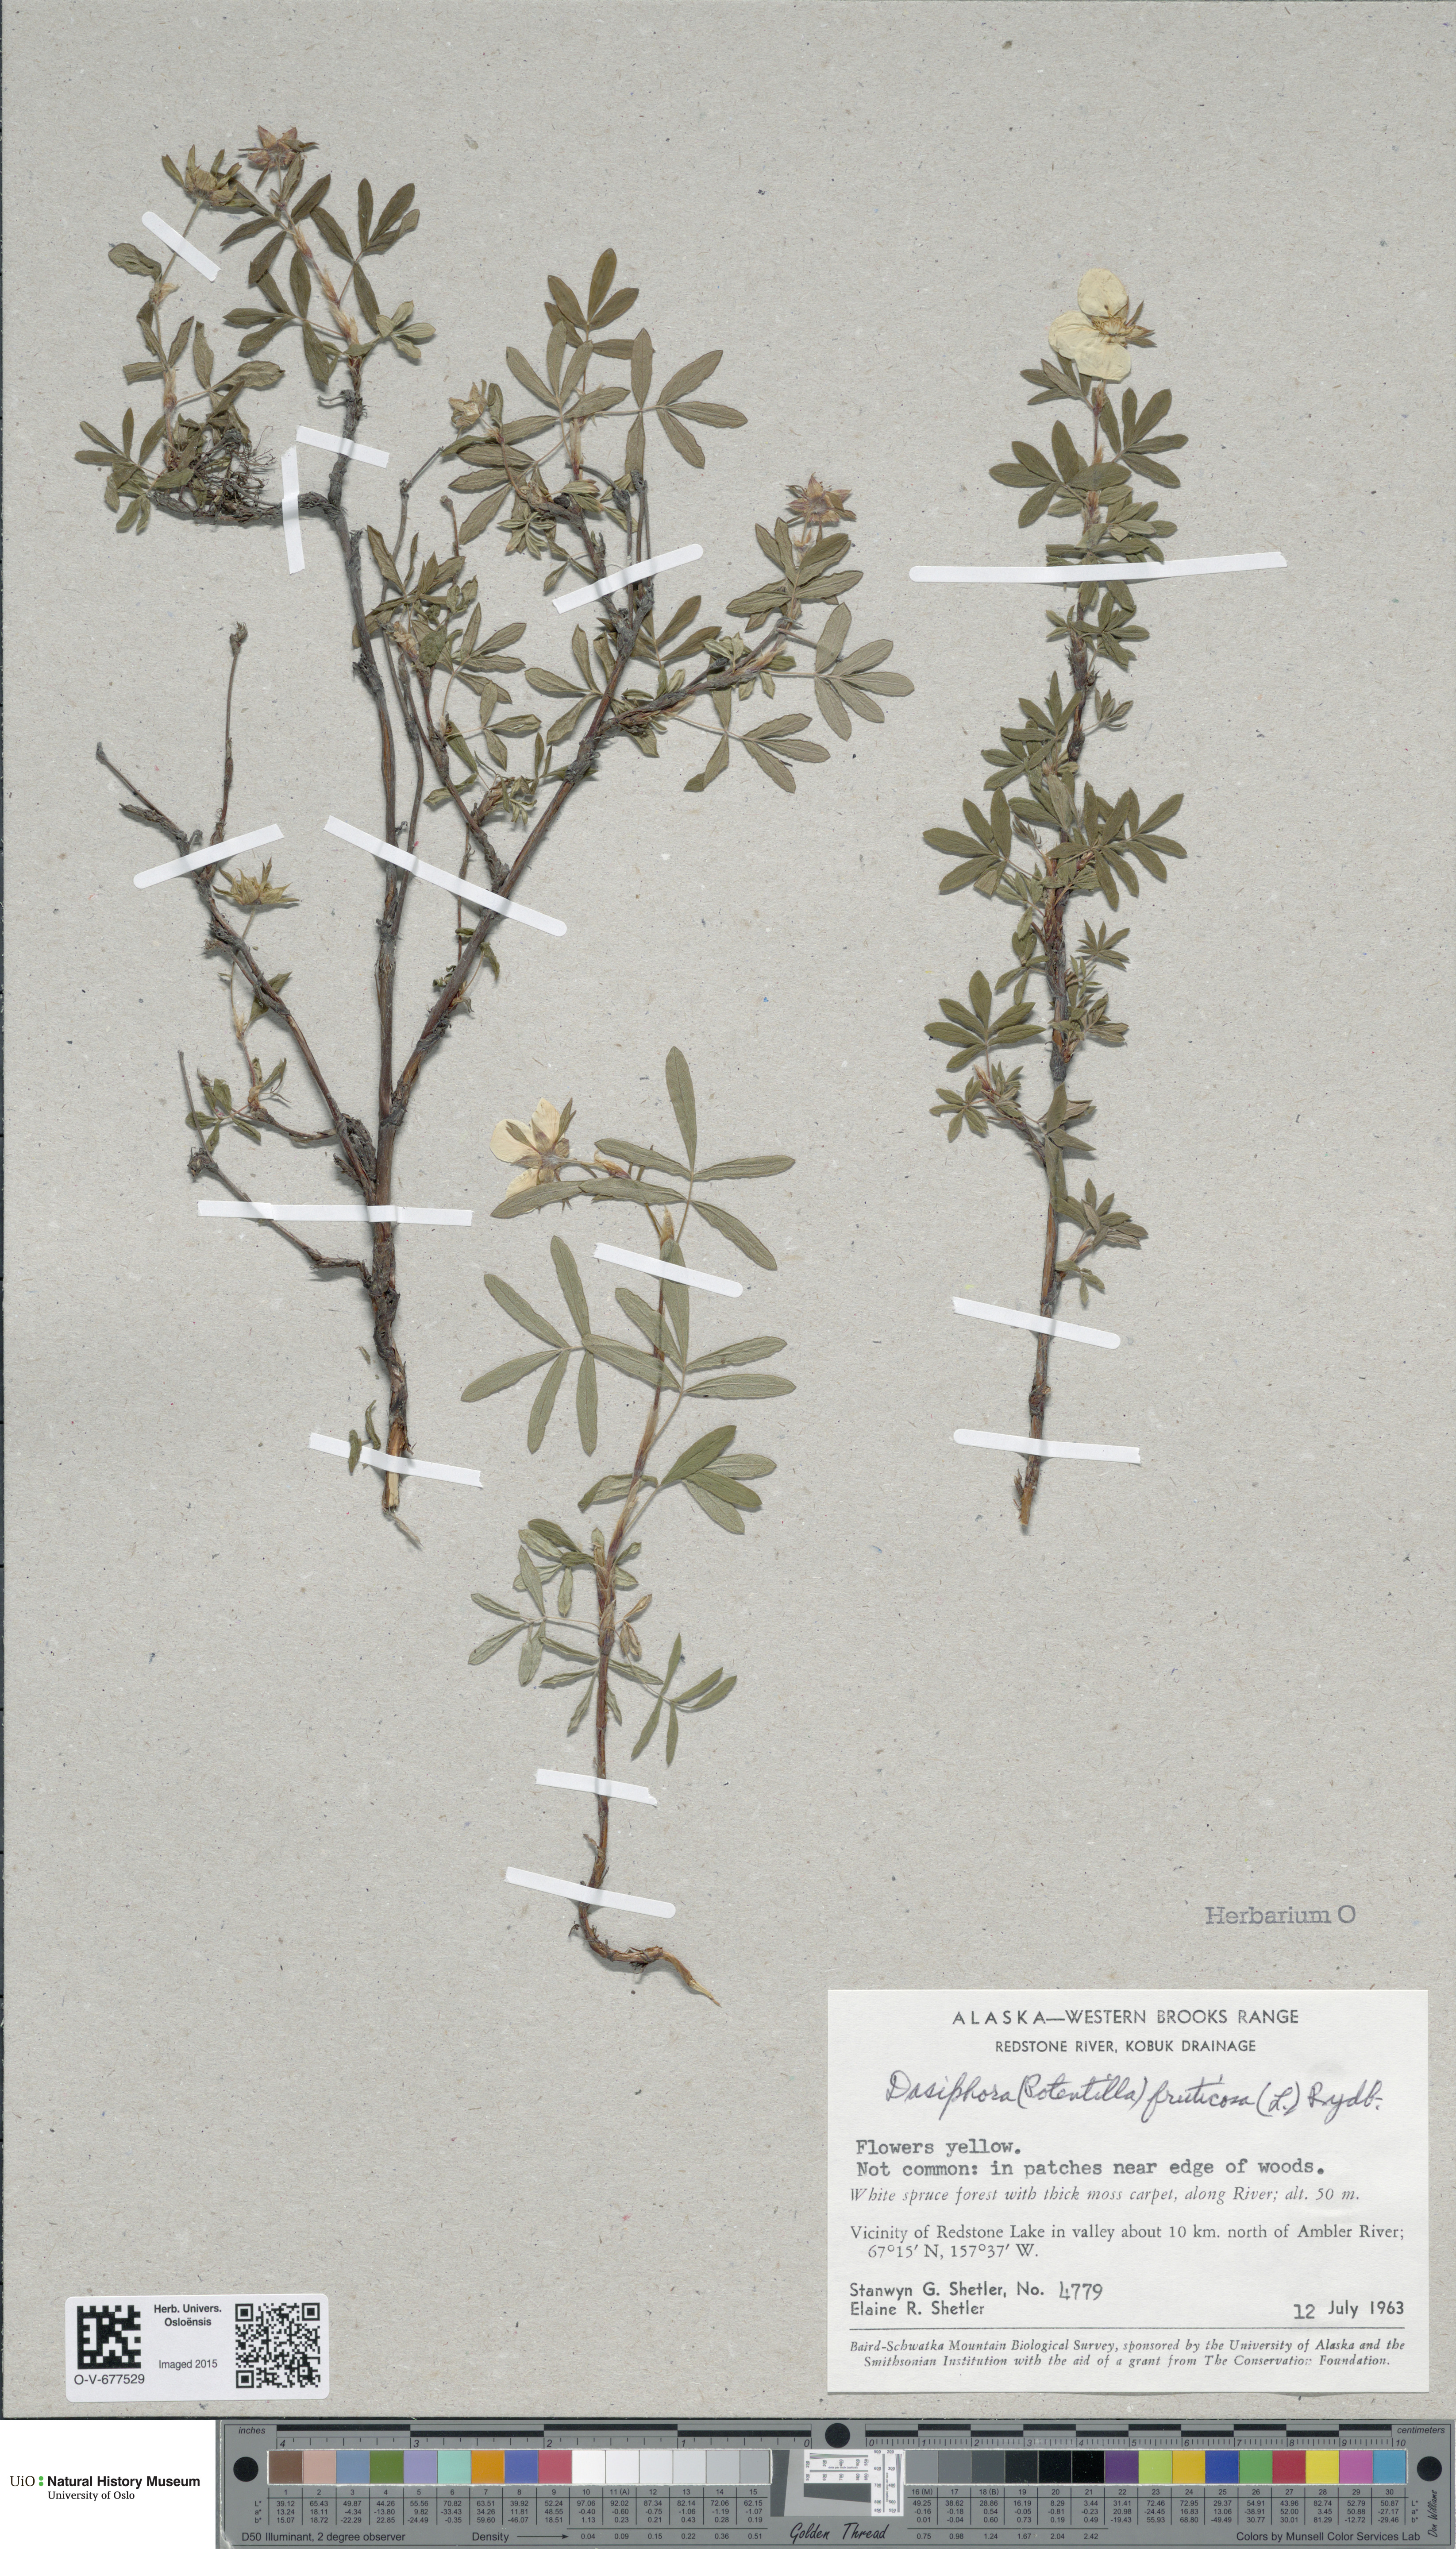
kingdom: Plantae
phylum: Tracheophyta
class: Magnoliopsida
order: Rosales
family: Rosaceae
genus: Dasiphora
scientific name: Dasiphora fruticosa
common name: Shrubby cinquefoil
